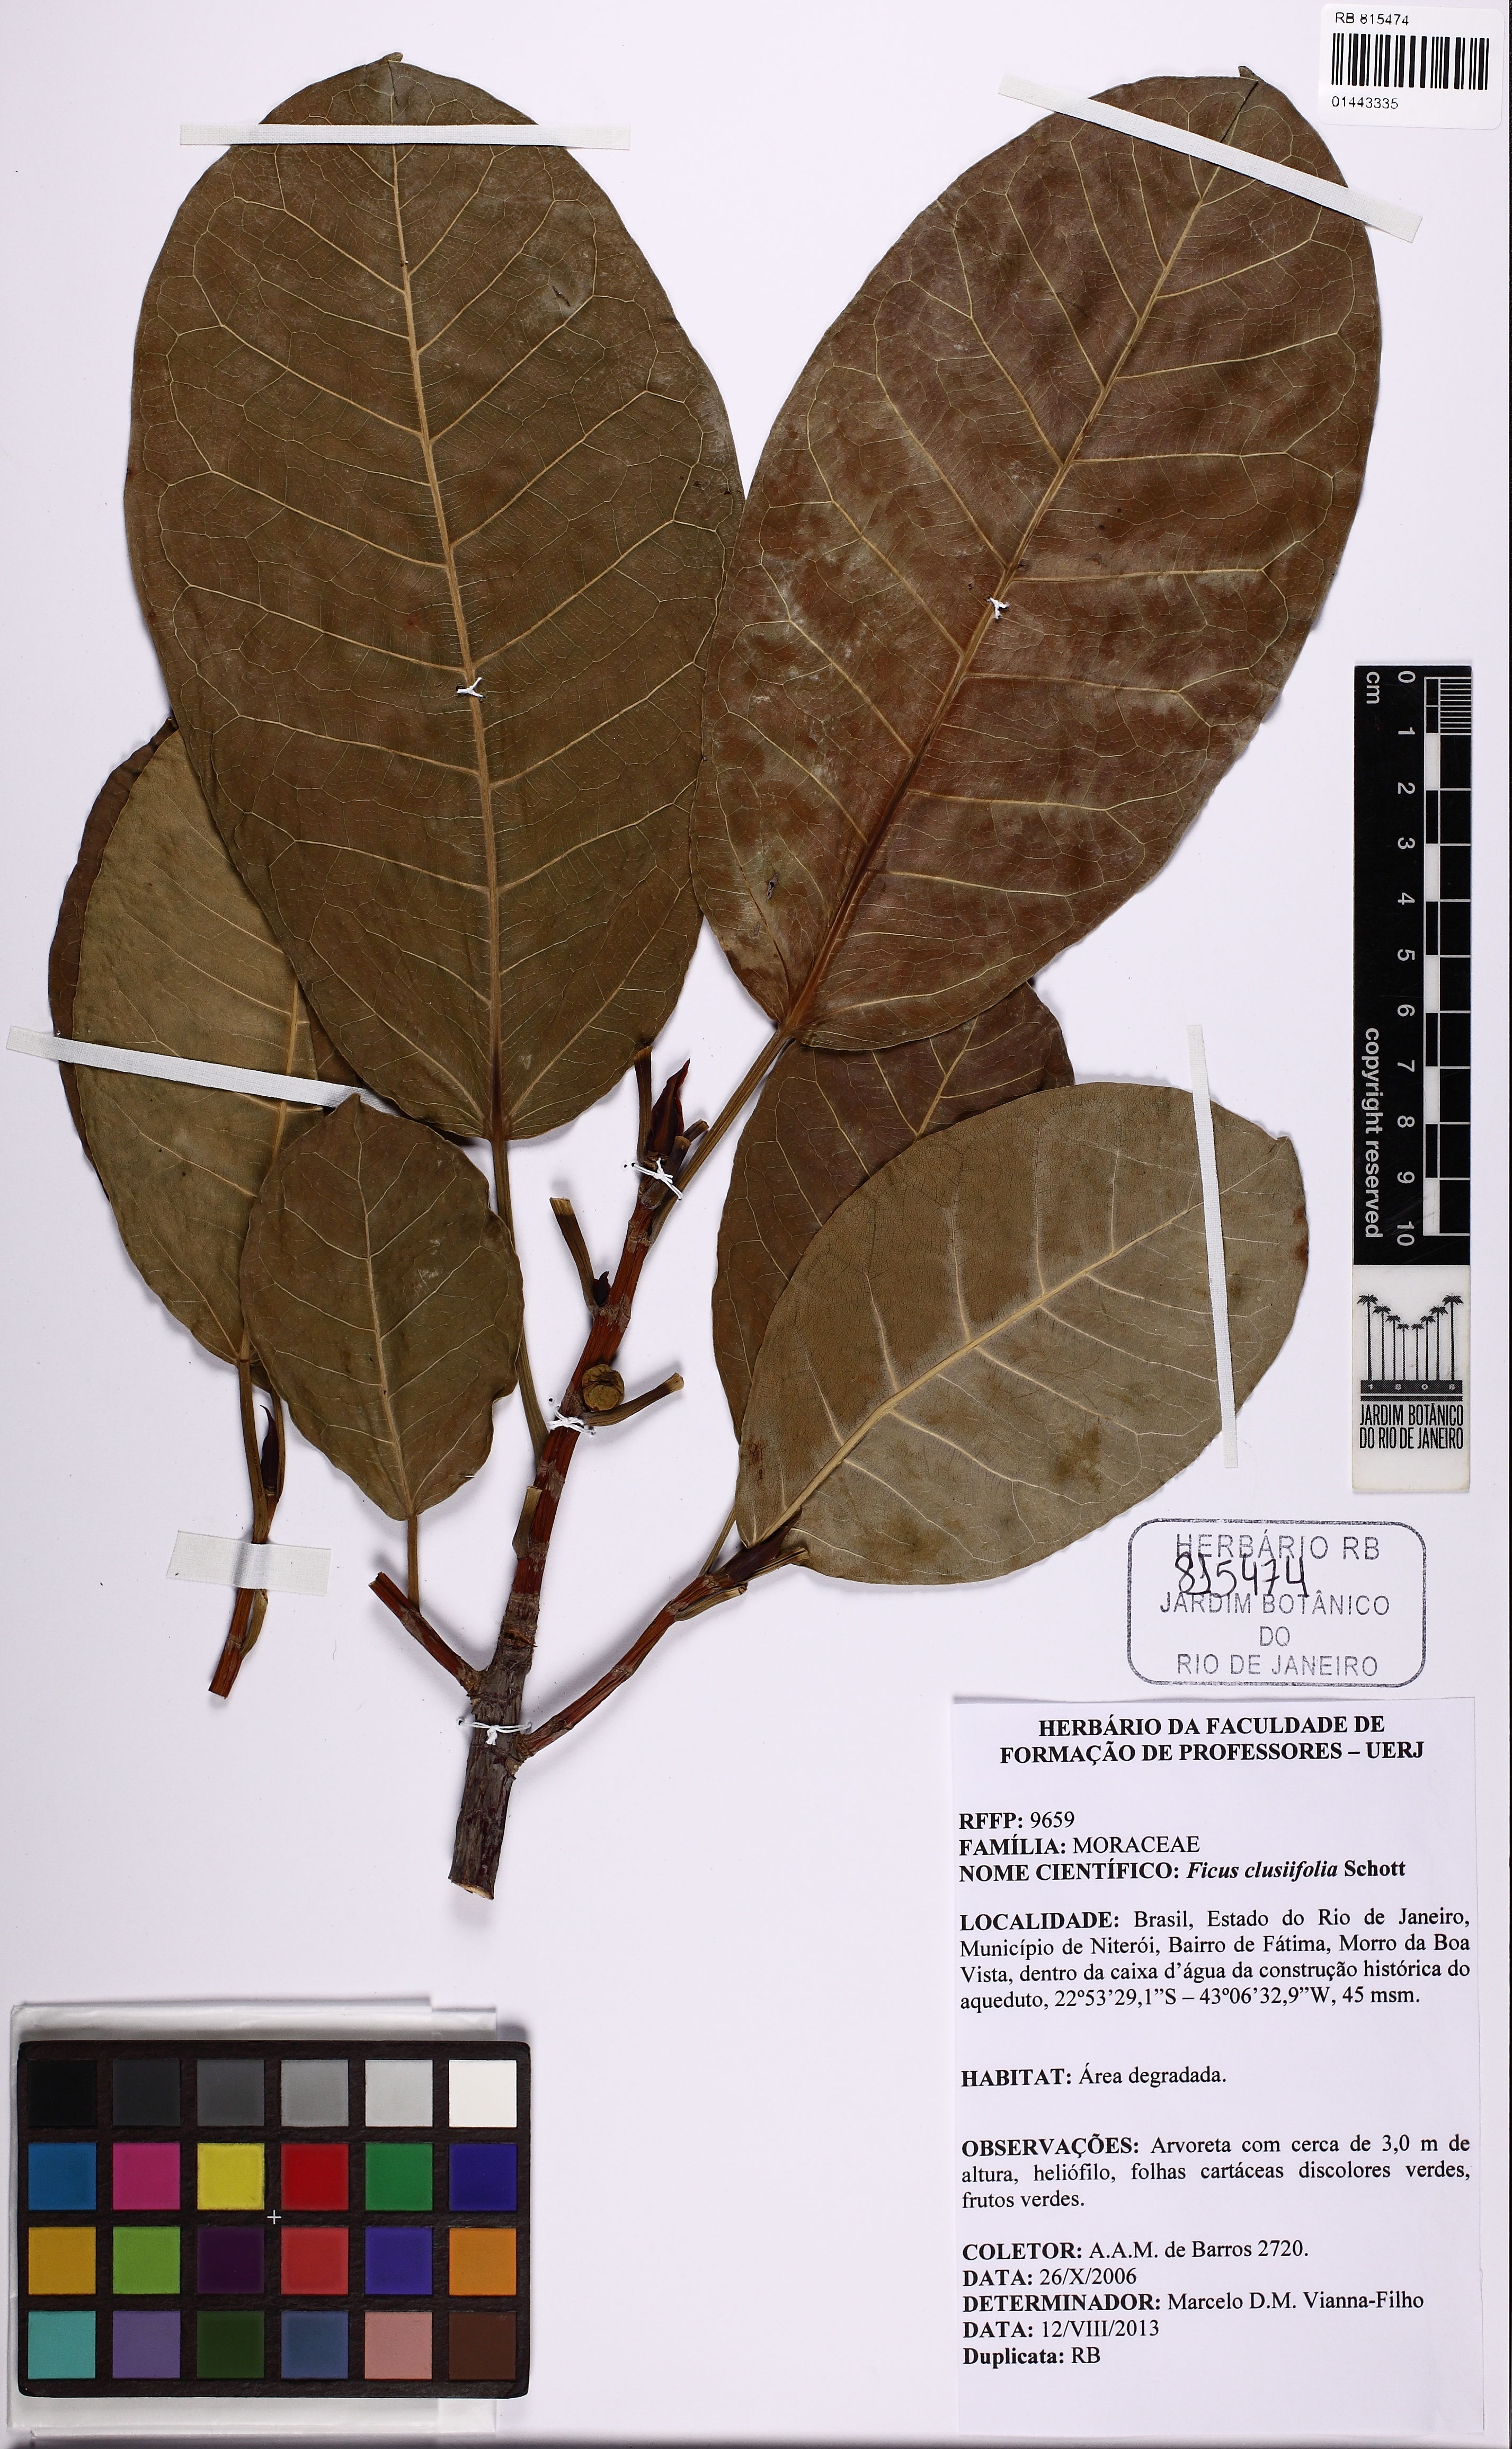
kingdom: Plantae
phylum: Tracheophyta
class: Magnoliopsida
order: Rosales
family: Moraceae
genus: Ficus
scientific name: Ficus americana
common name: Jamaican cherry fig
